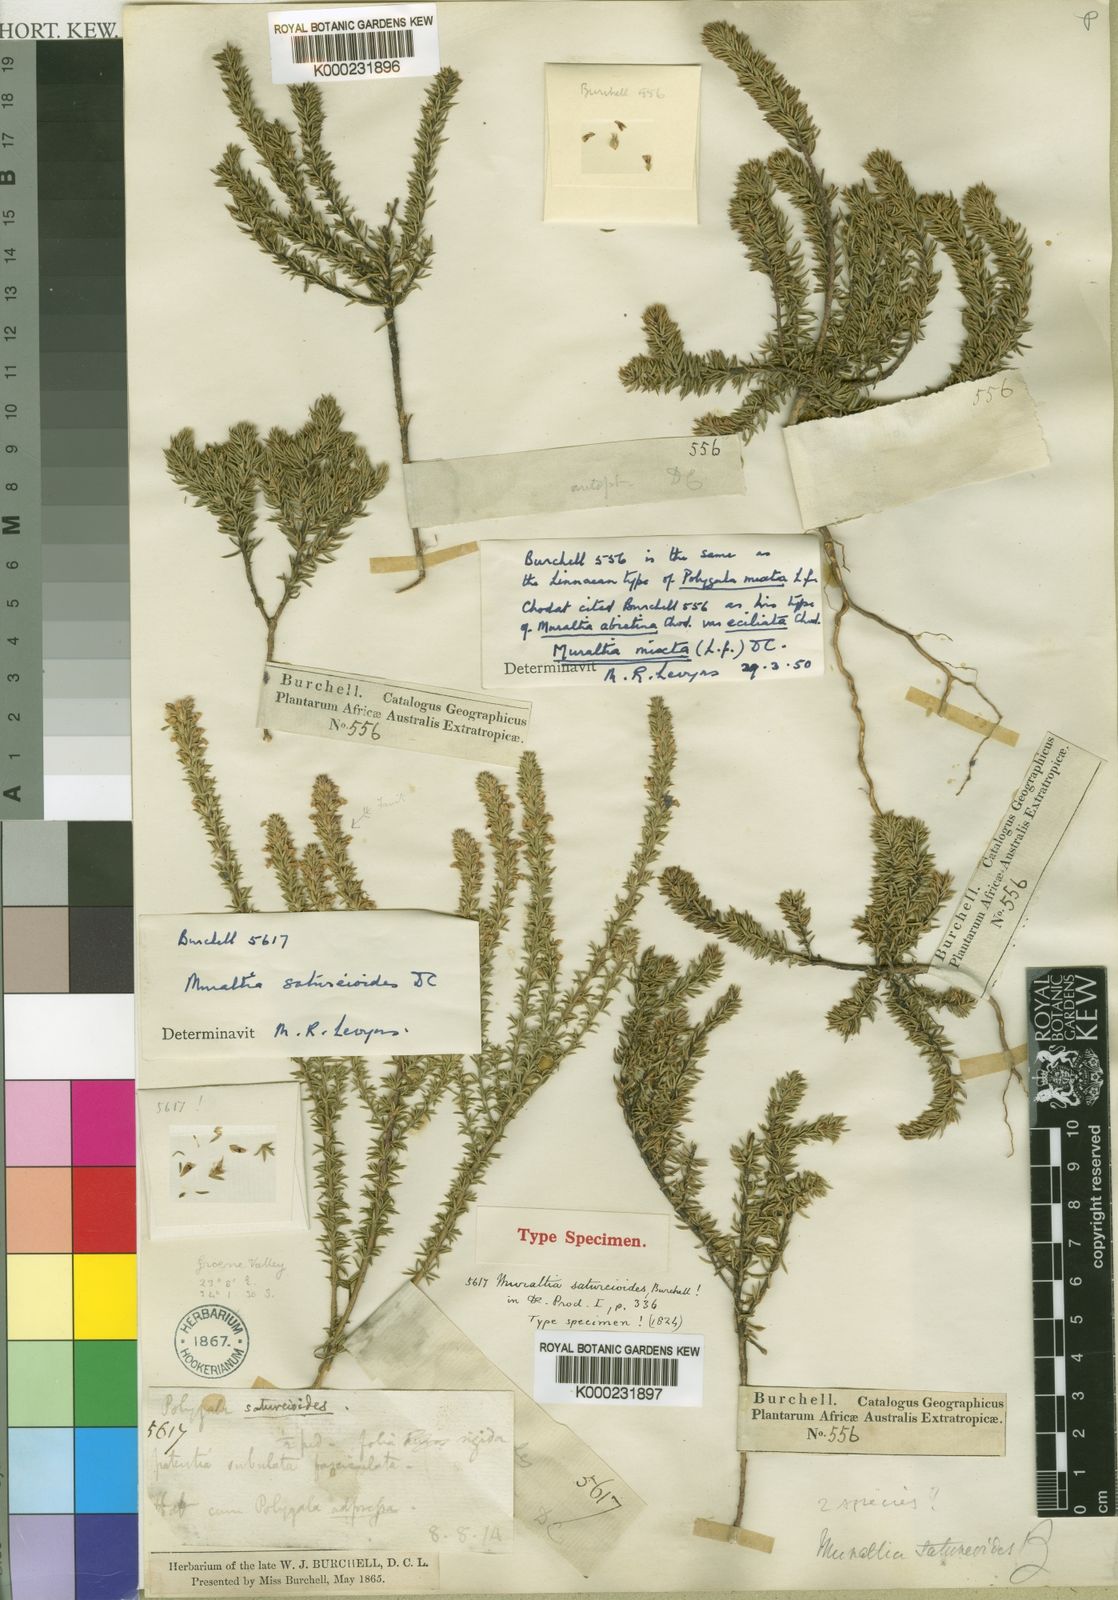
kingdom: Plantae
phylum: Tracheophyta
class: Magnoliopsida
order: Fabales
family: Polygalaceae
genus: Muraltia
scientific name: Muraltia
